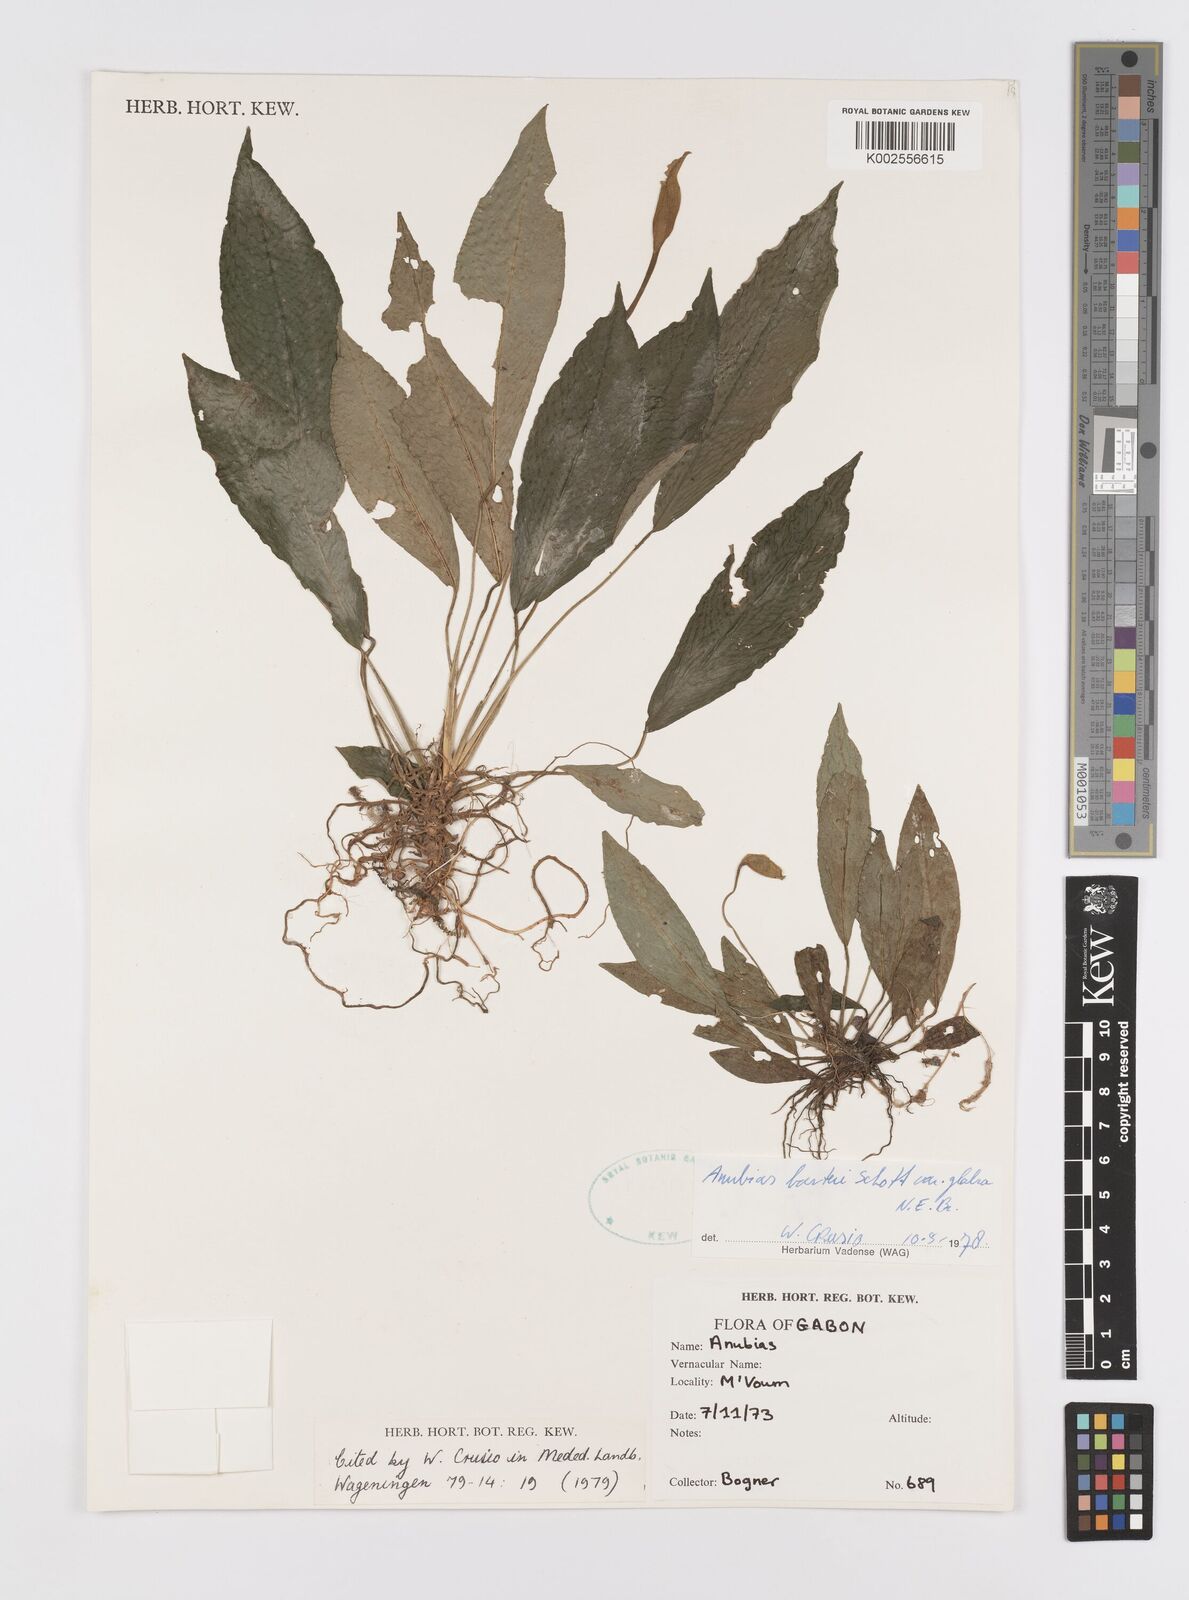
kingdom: Plantae
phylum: Tracheophyta
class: Liliopsida
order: Alismatales
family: Araceae
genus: Anubias
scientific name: Anubias barteri
